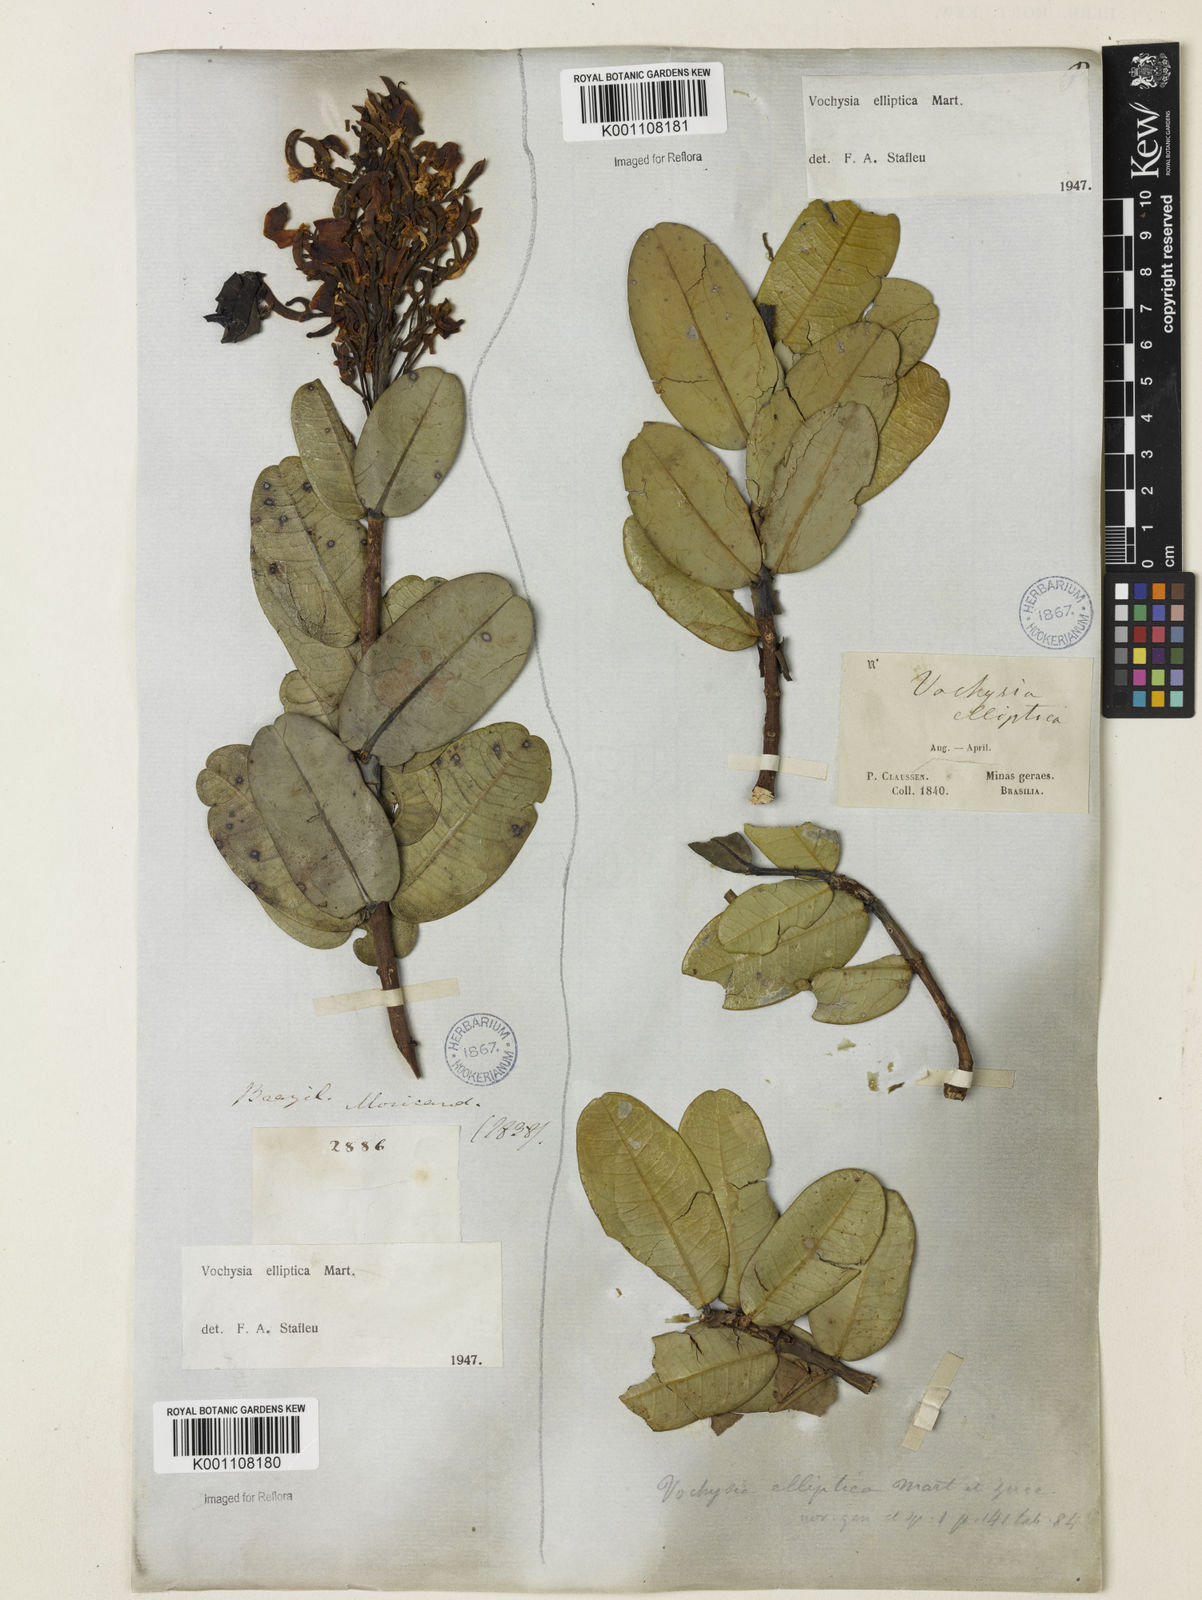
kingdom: Plantae
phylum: Tracheophyta
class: Magnoliopsida
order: Myrtales
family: Vochysiaceae
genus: Vochysia
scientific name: Vochysia elliptica
